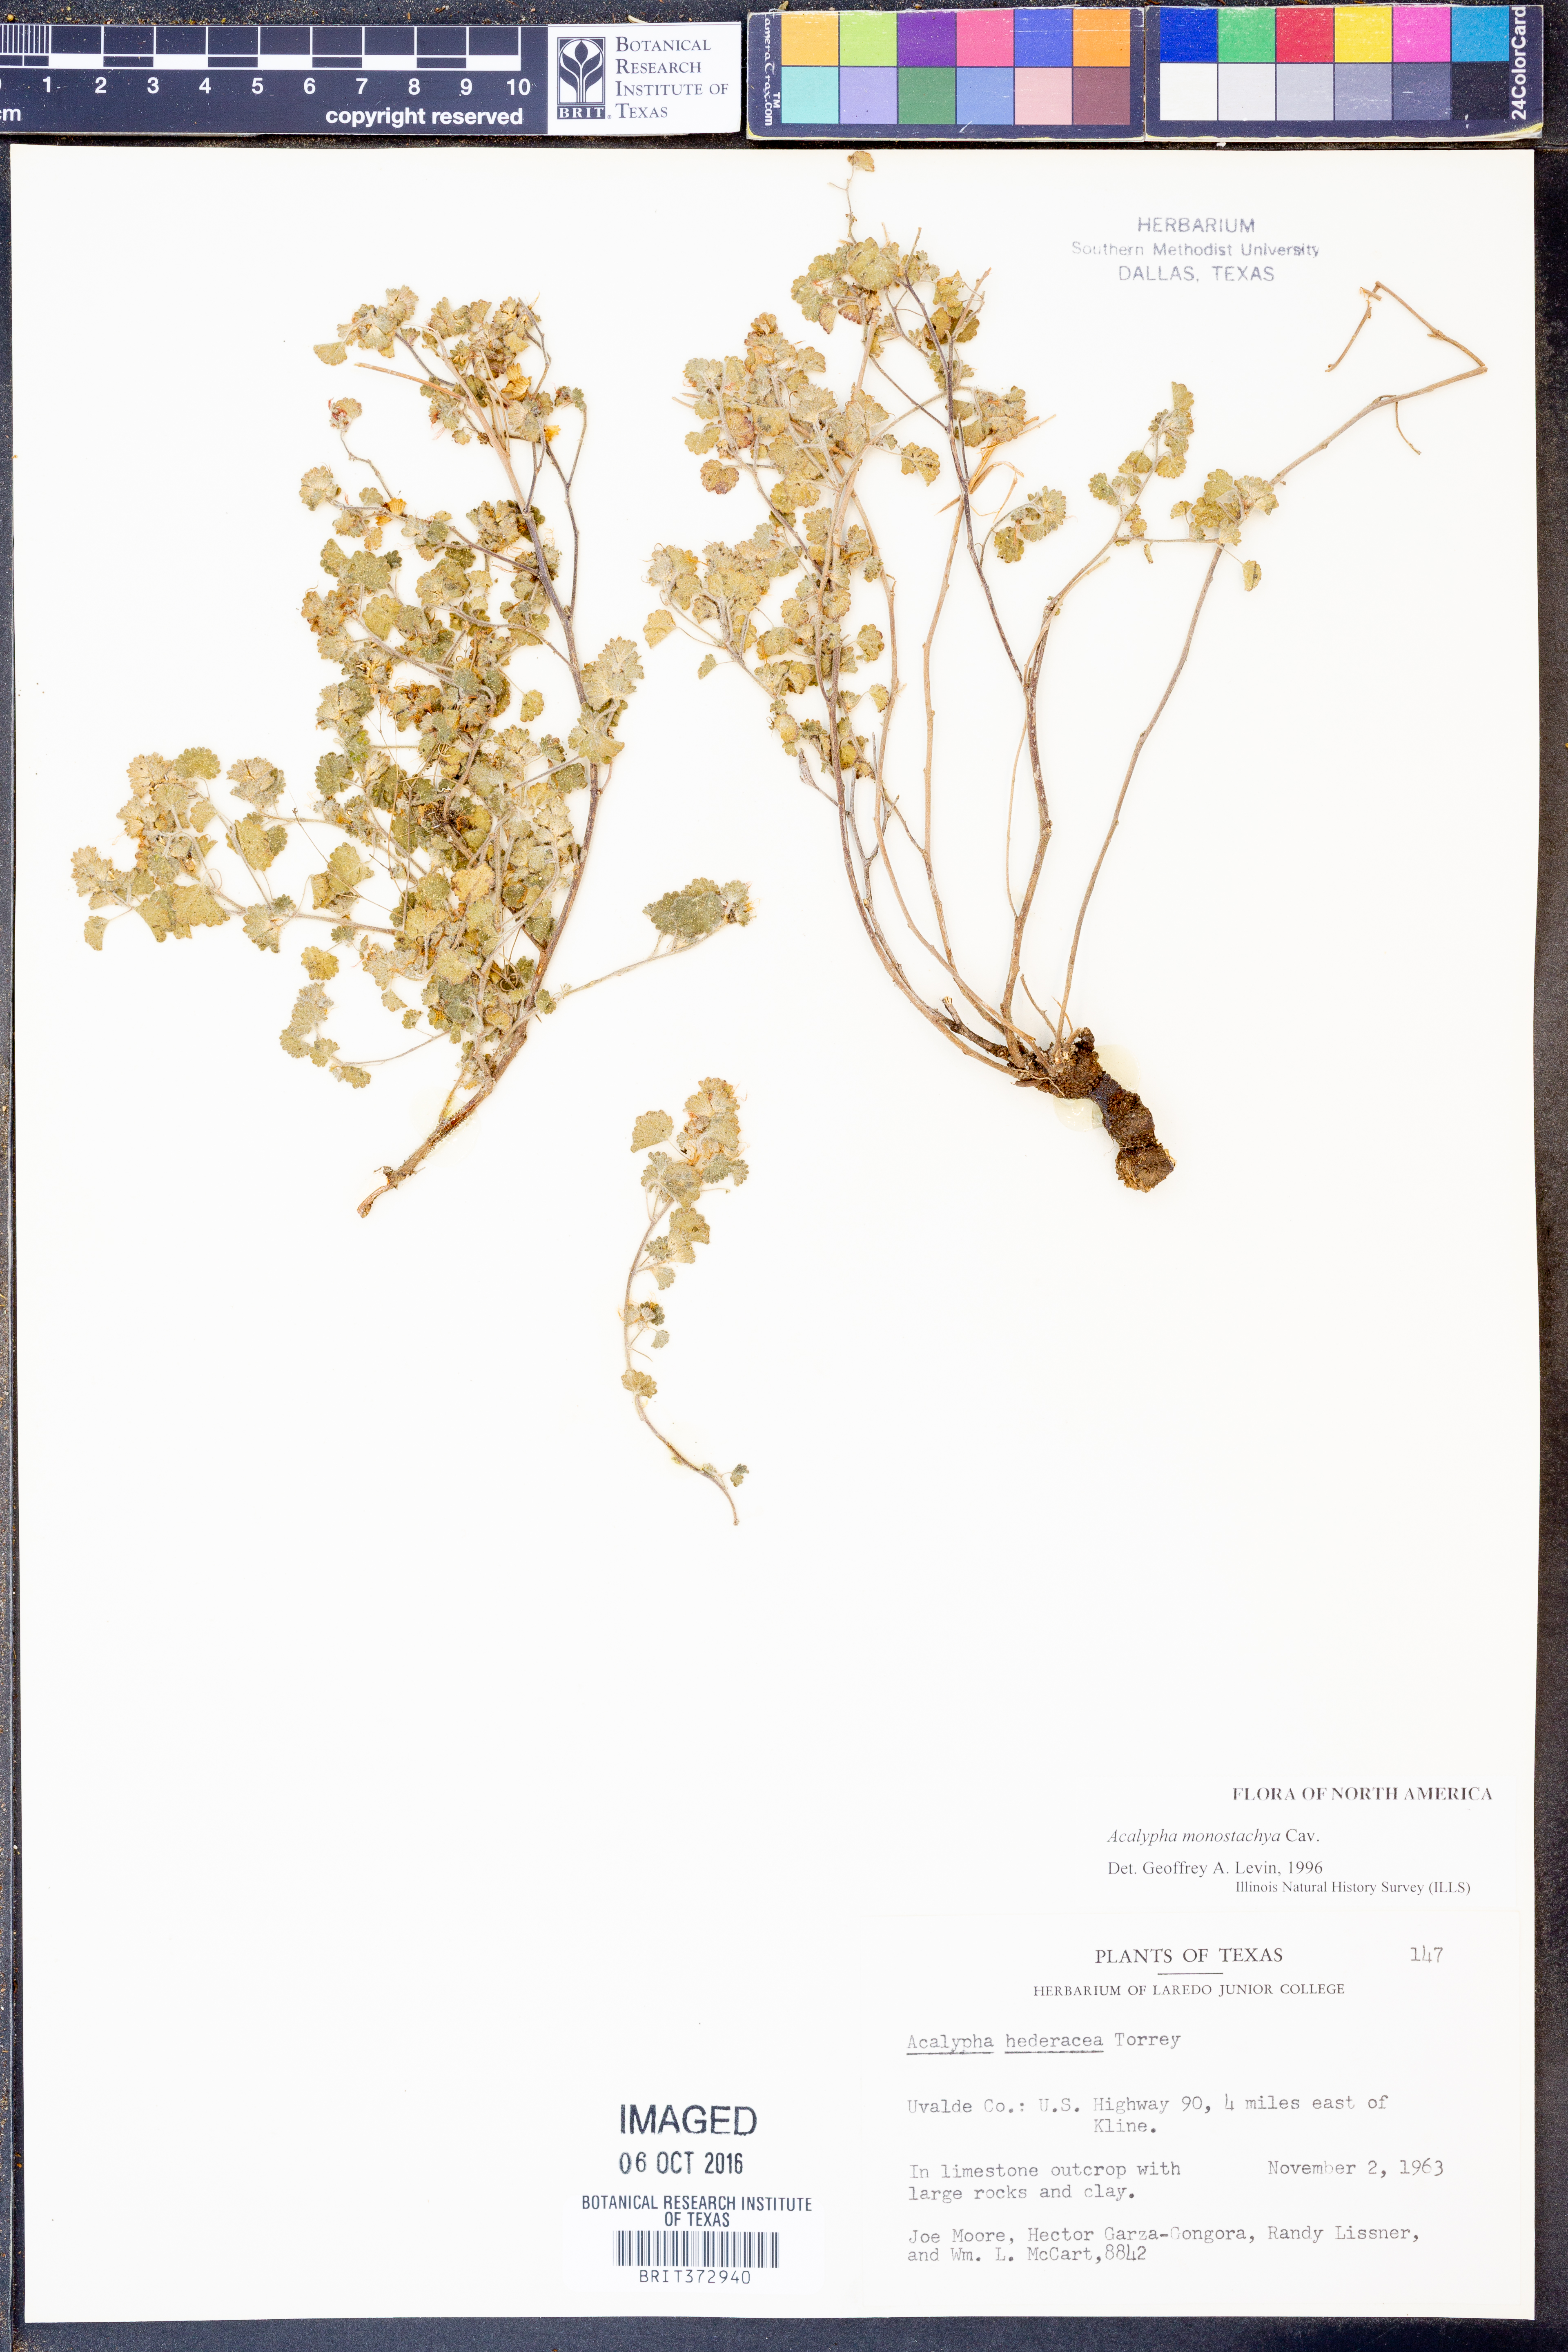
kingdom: Plantae
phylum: Tracheophyta
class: Magnoliopsida
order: Malpighiales
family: Euphorbiaceae
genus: Acalypha
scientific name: Acalypha monostachya
